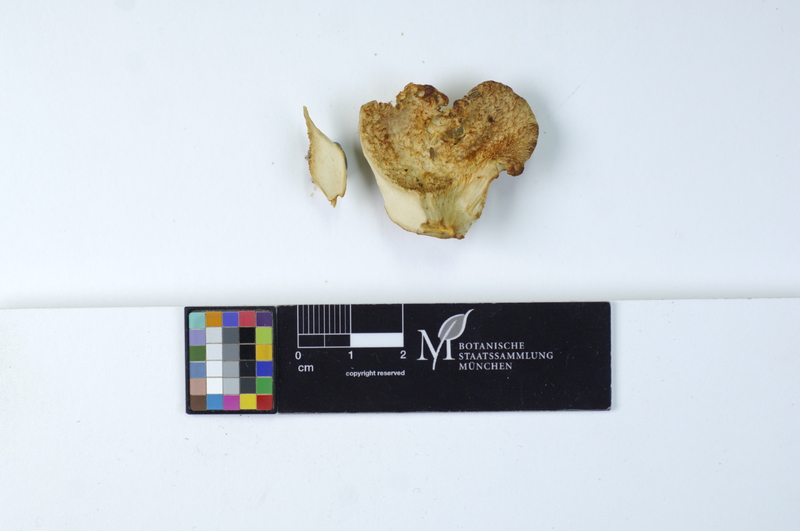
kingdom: Plantae
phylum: Tracheophyta
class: Magnoliopsida
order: Fagales
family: Betulaceae
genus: Betula
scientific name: Betula pubescens
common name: Downy birch
